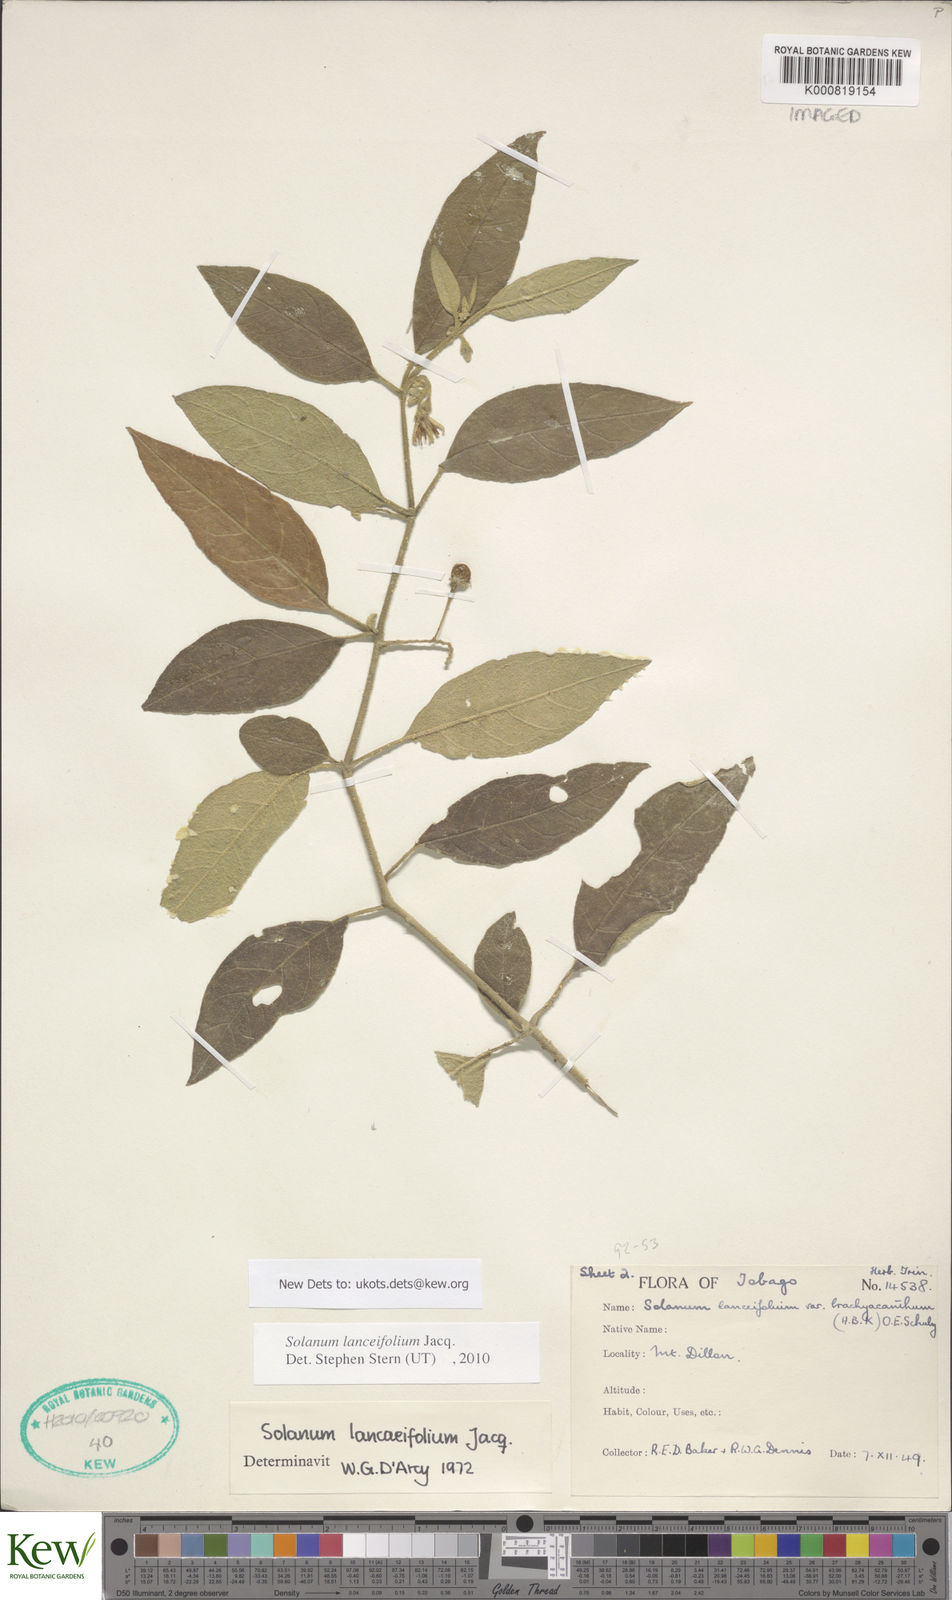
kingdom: Plantae
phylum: Tracheophyta
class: Magnoliopsida
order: Solanales
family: Solanaceae
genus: Solanum
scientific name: Solanum lanceifolium
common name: Lanceleaf nightshade
